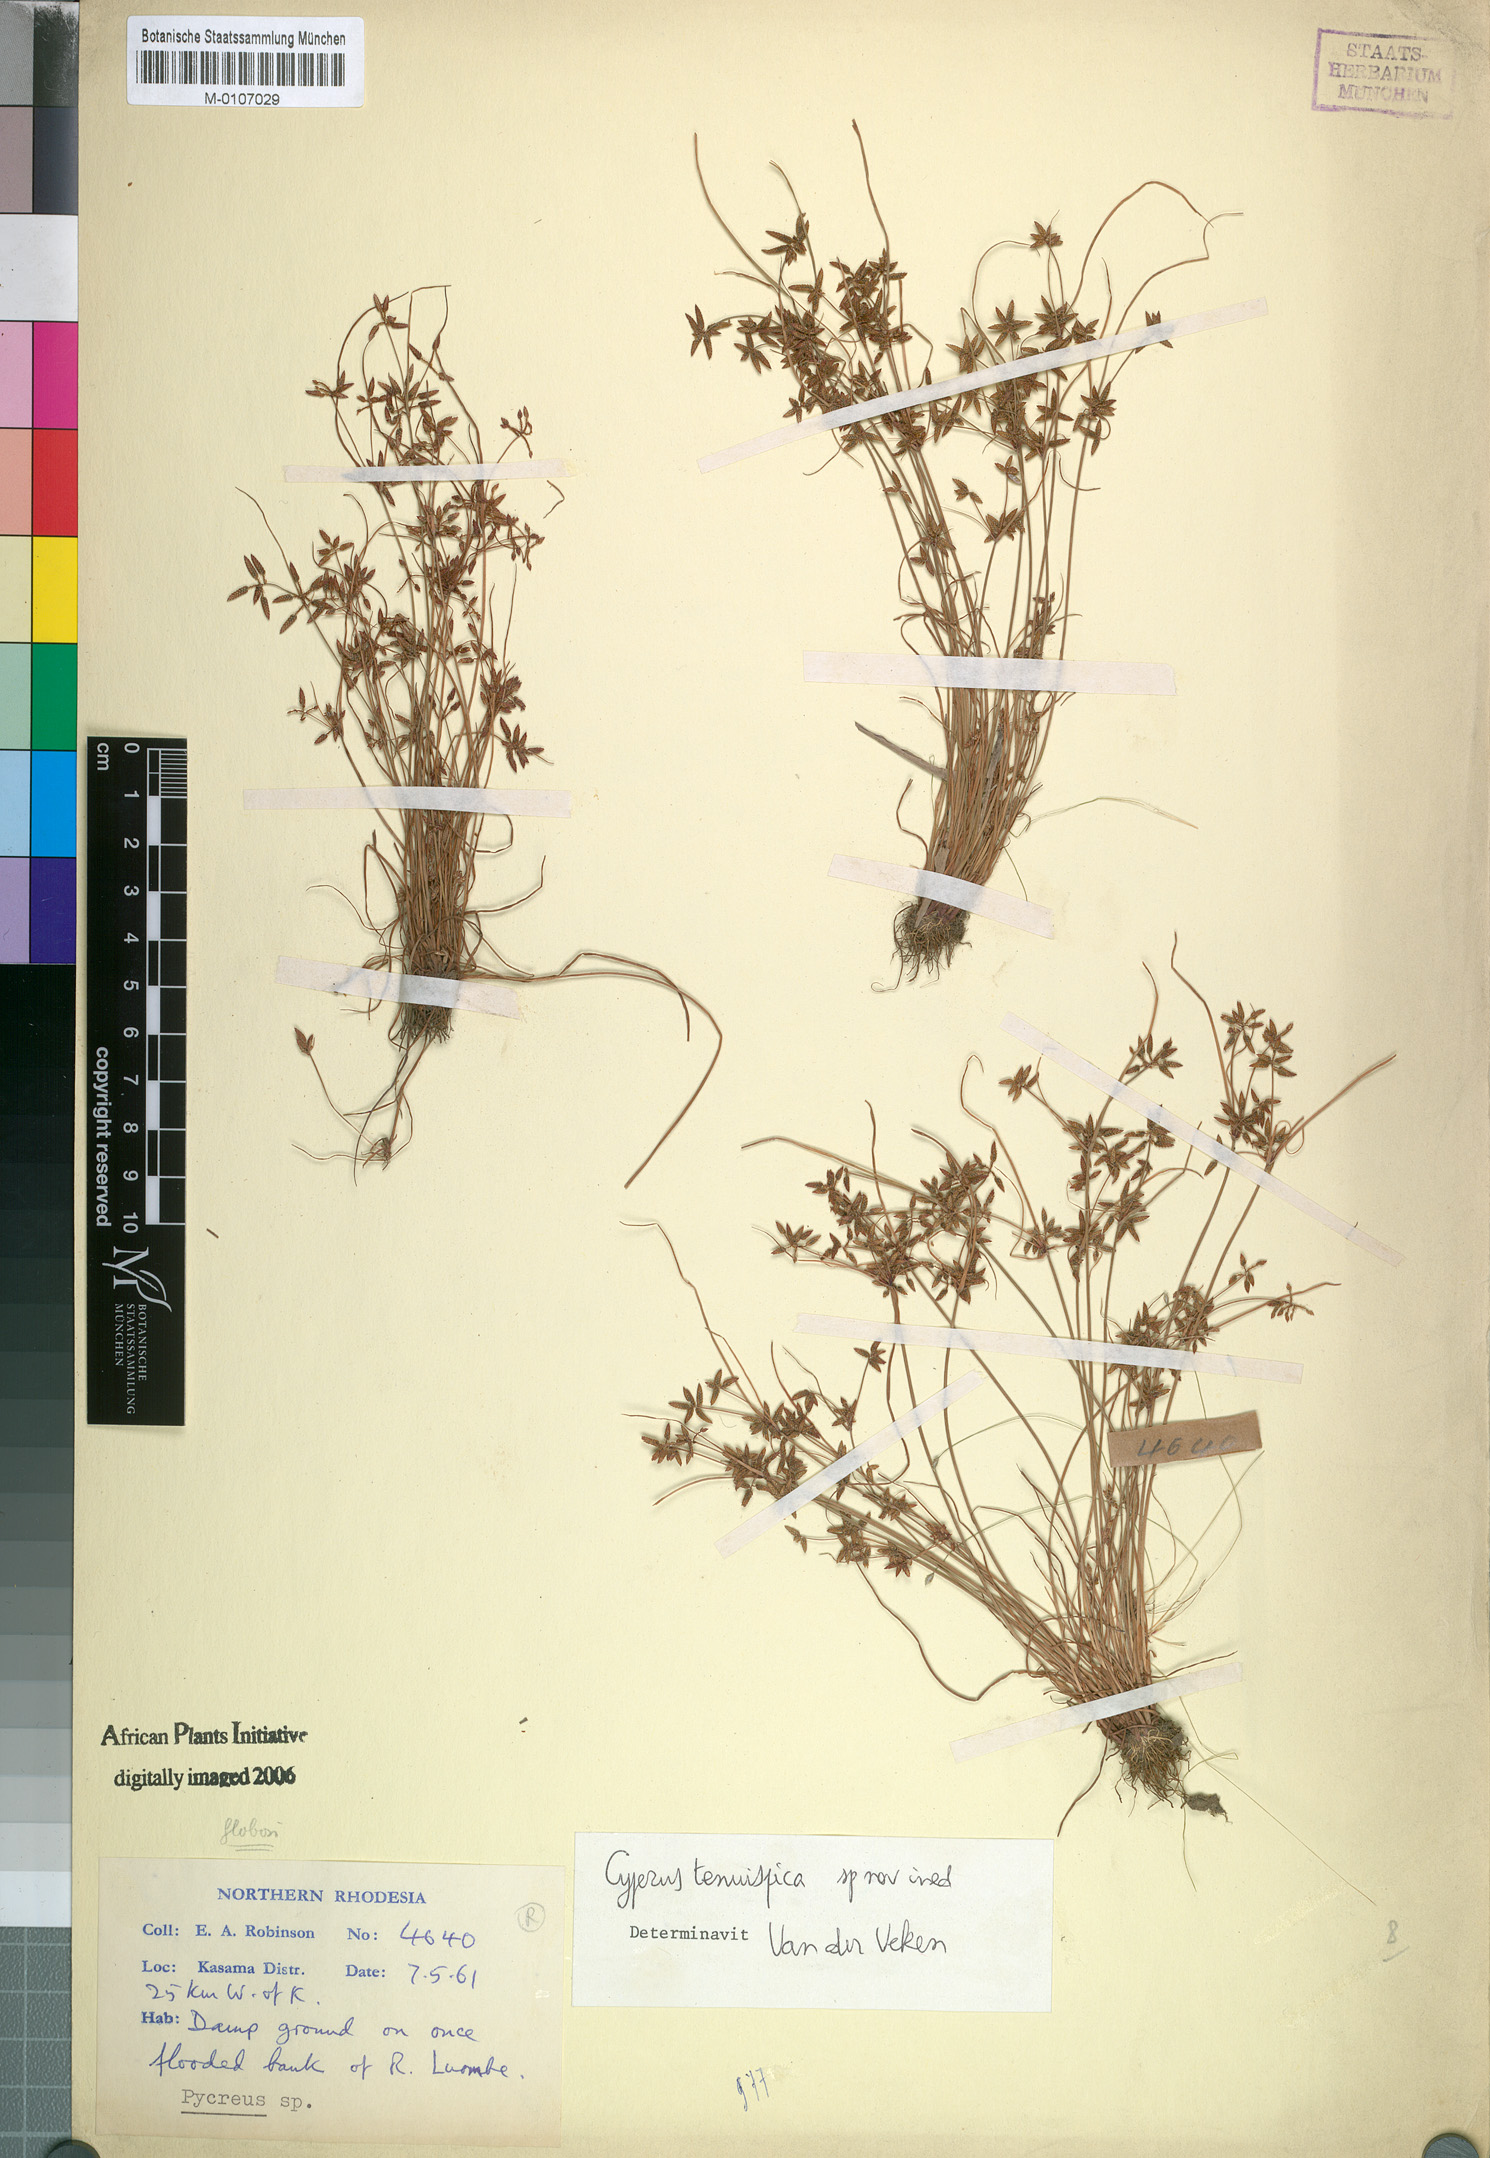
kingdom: Plantae
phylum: Tracheophyta
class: Liliopsida
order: Poales
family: Cyperaceae
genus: Cyperus
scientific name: Cyperus tenuispica
